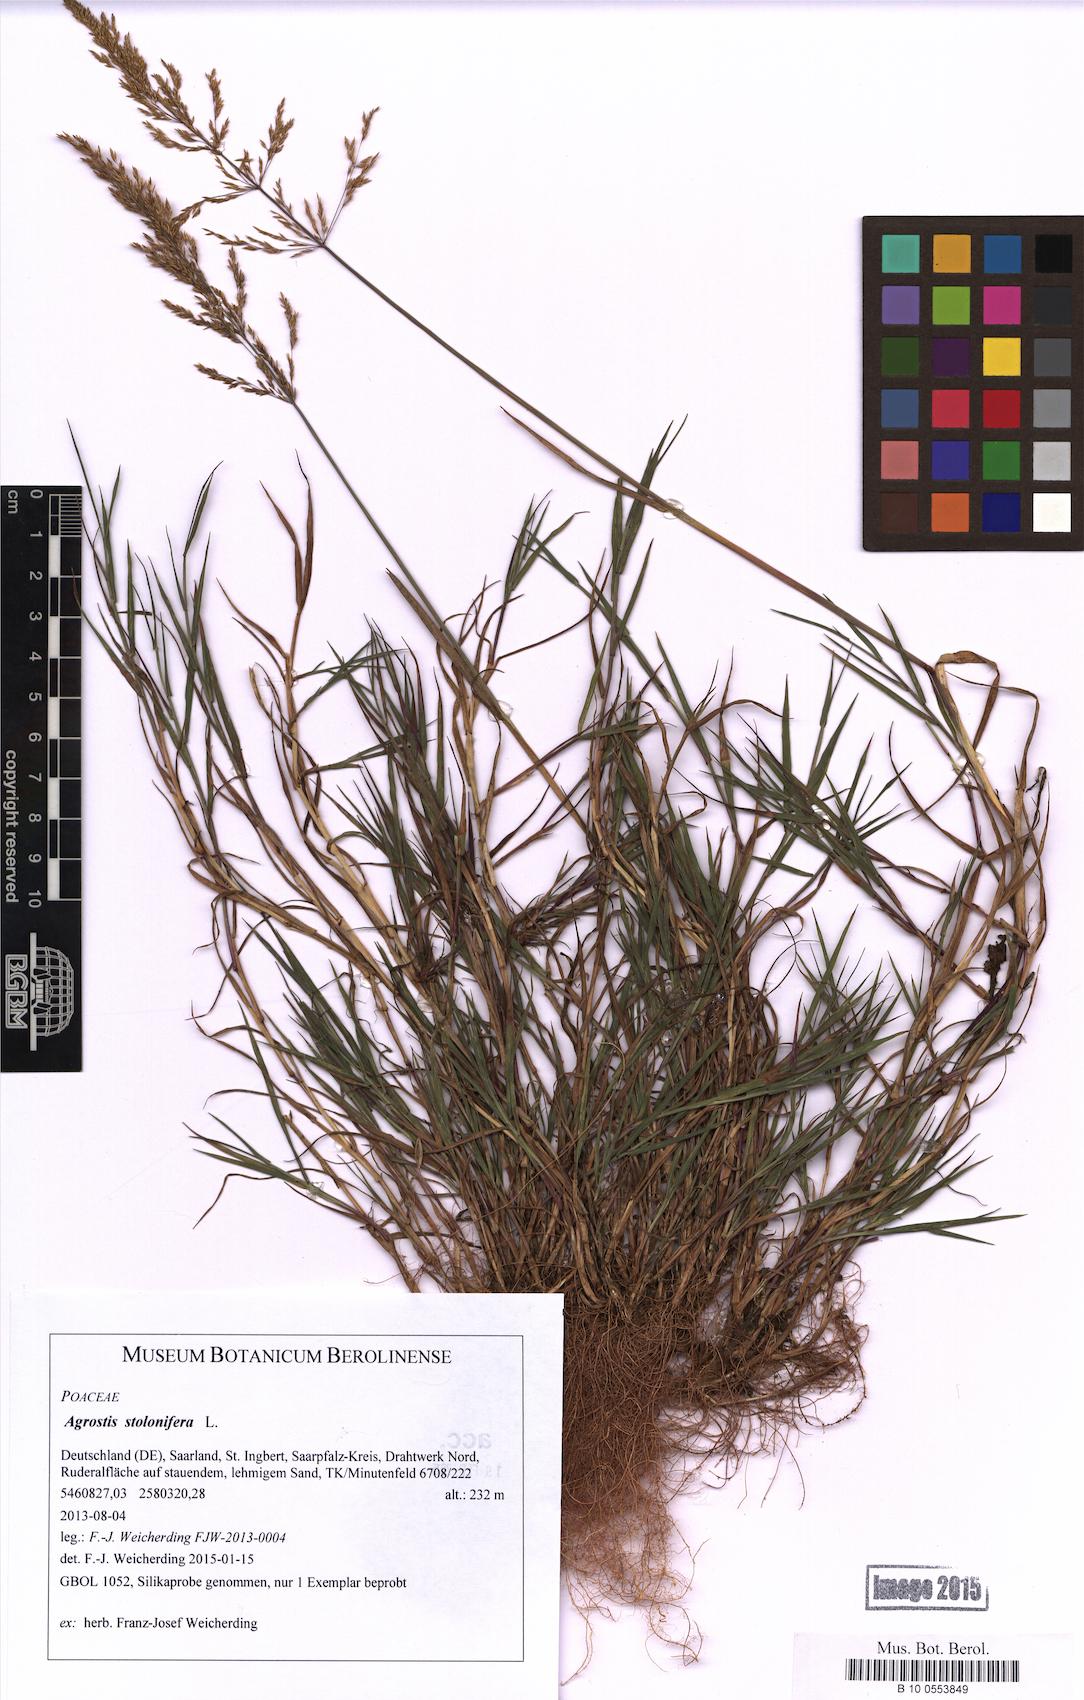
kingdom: Plantae
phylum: Tracheophyta
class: Liliopsida
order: Poales
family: Poaceae
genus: Agrostis
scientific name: Agrostis stolonifera
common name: Creeping bentgrass
